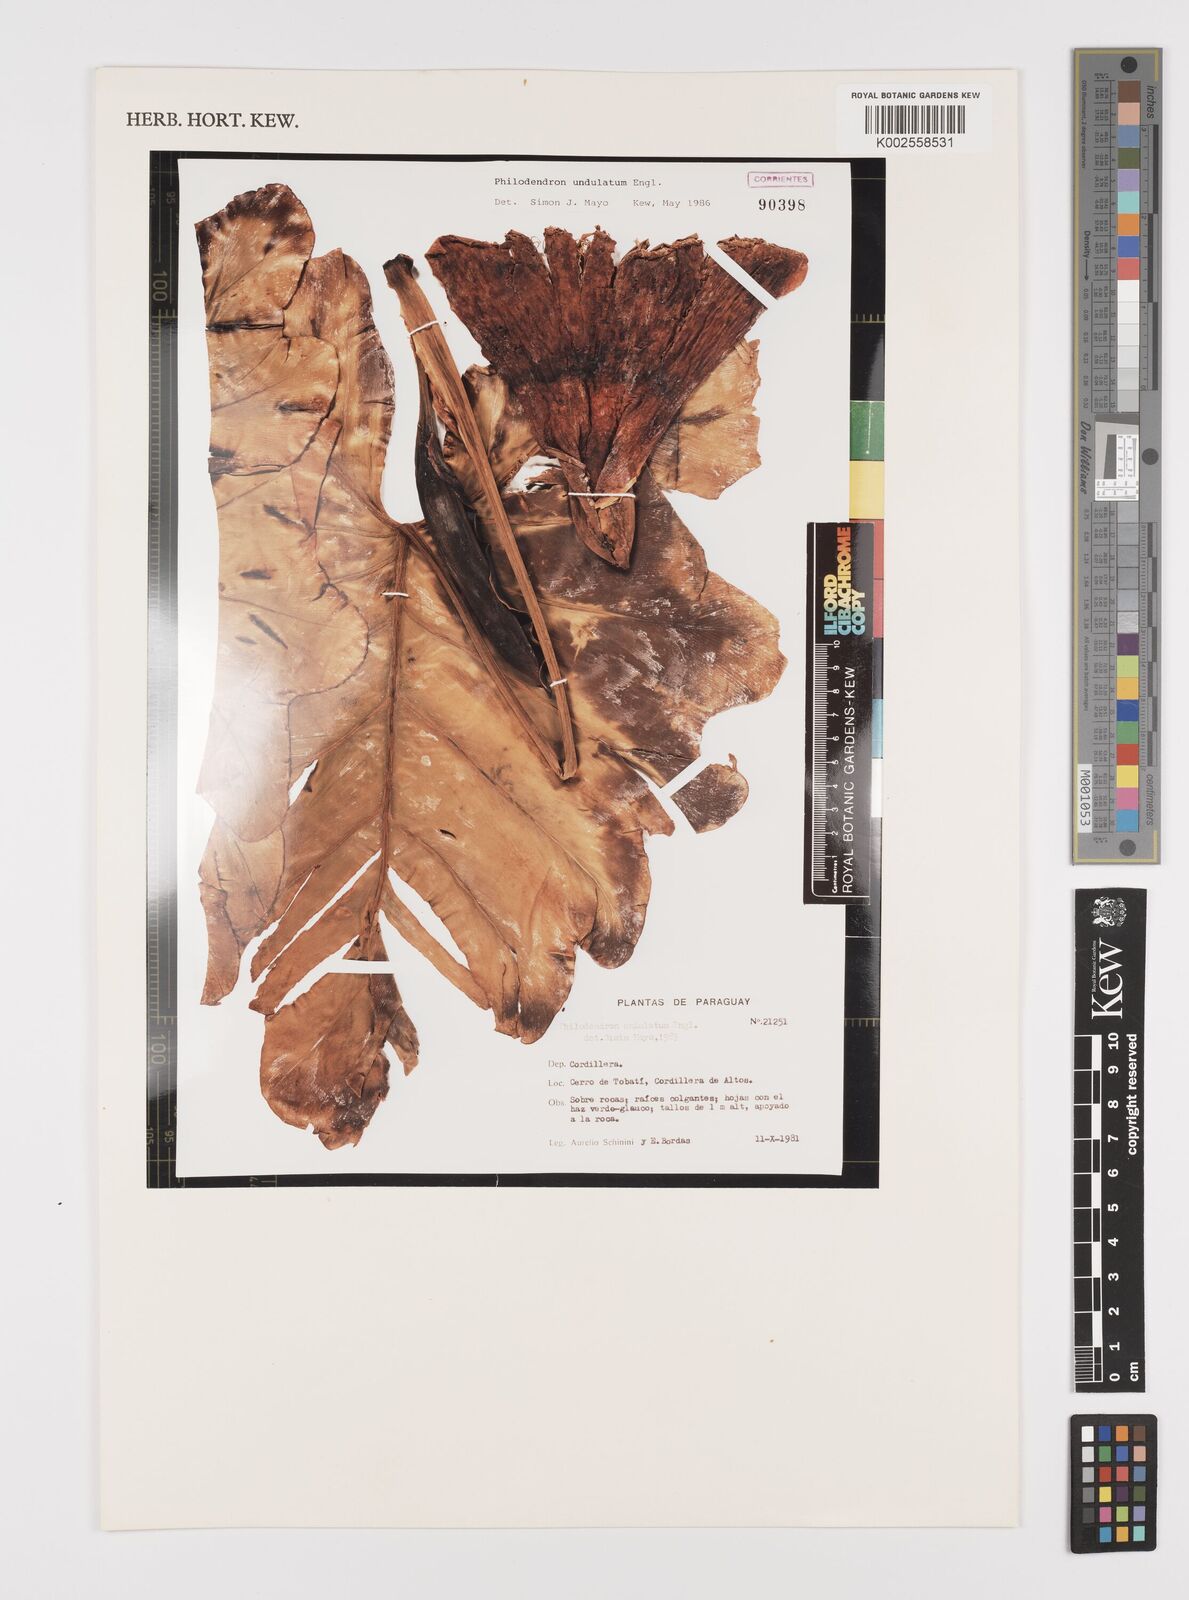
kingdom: Plantae
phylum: Tracheophyta
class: Liliopsida
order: Alismatales
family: Araceae
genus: Thaumatophyllum
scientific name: Thaumatophyllum undulatum
